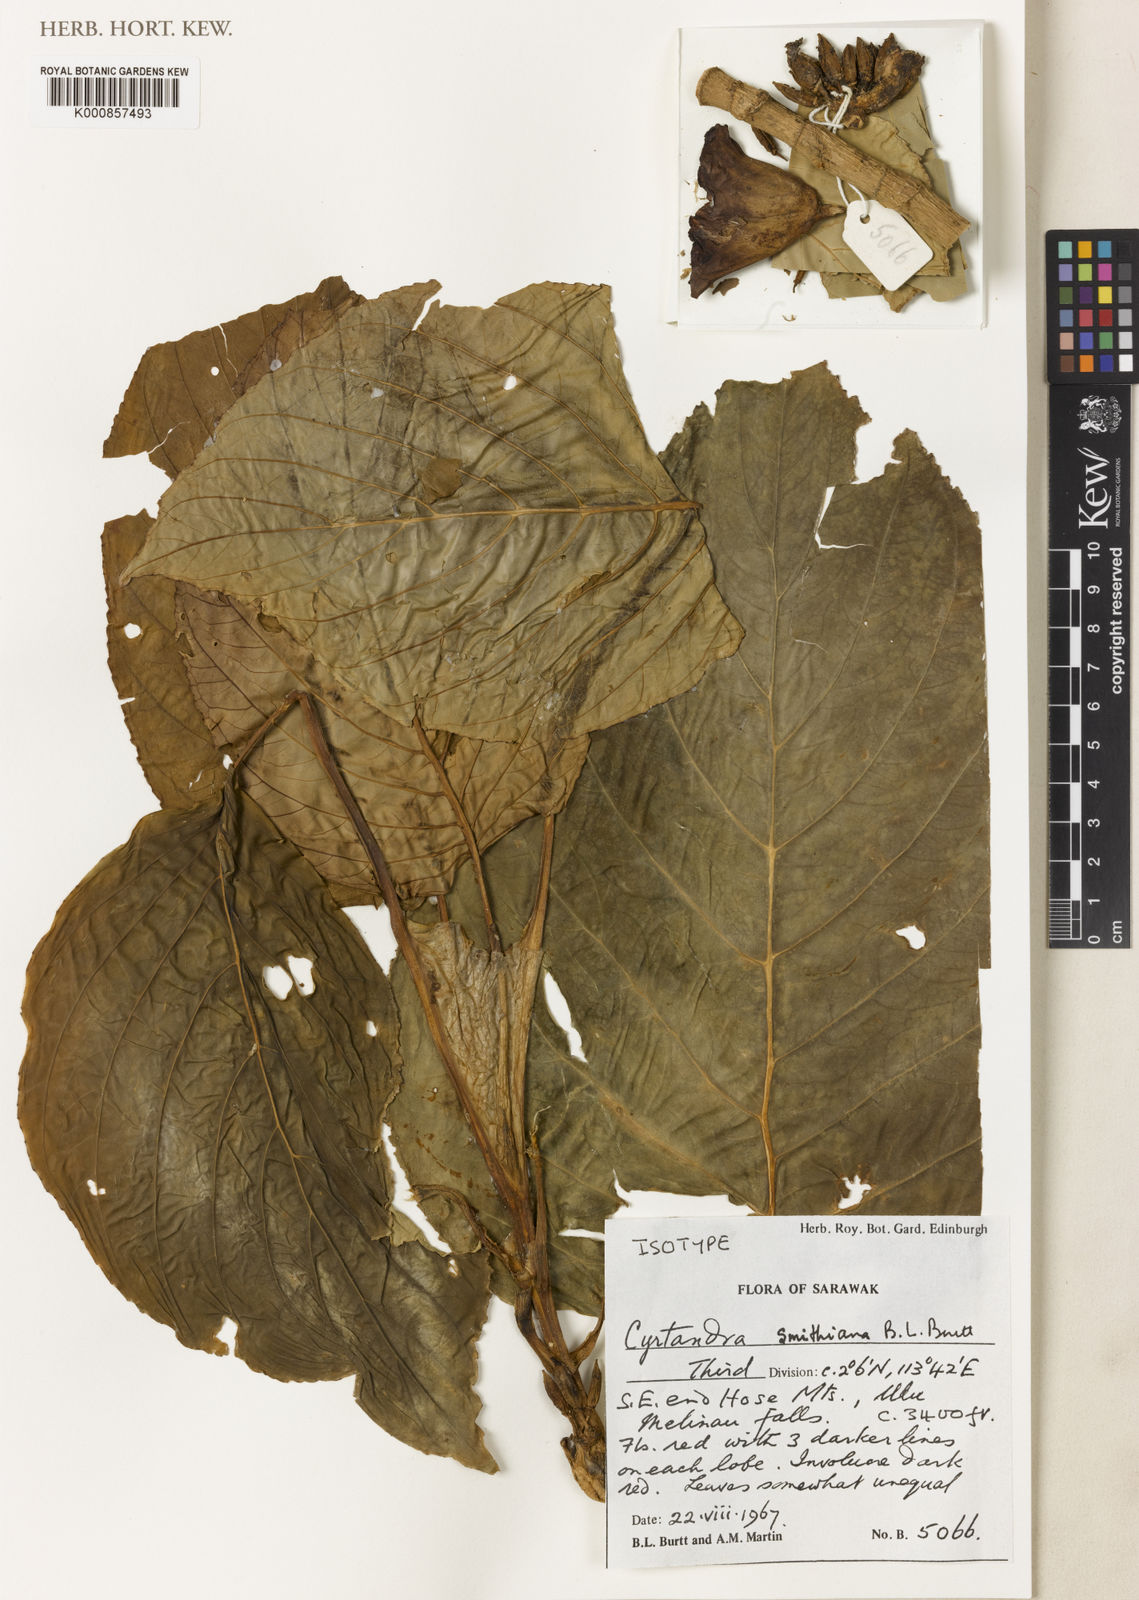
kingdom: Plantae
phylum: Tracheophyta
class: Magnoliopsida
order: Lamiales
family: Gesneriaceae
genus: Cyrtandra
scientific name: Cyrtandra smithiana
